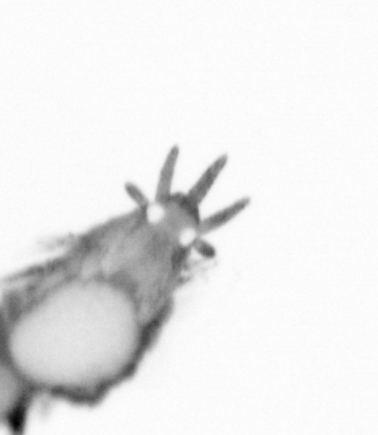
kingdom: Animalia
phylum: Annelida
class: Polychaeta
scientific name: Polychaeta
